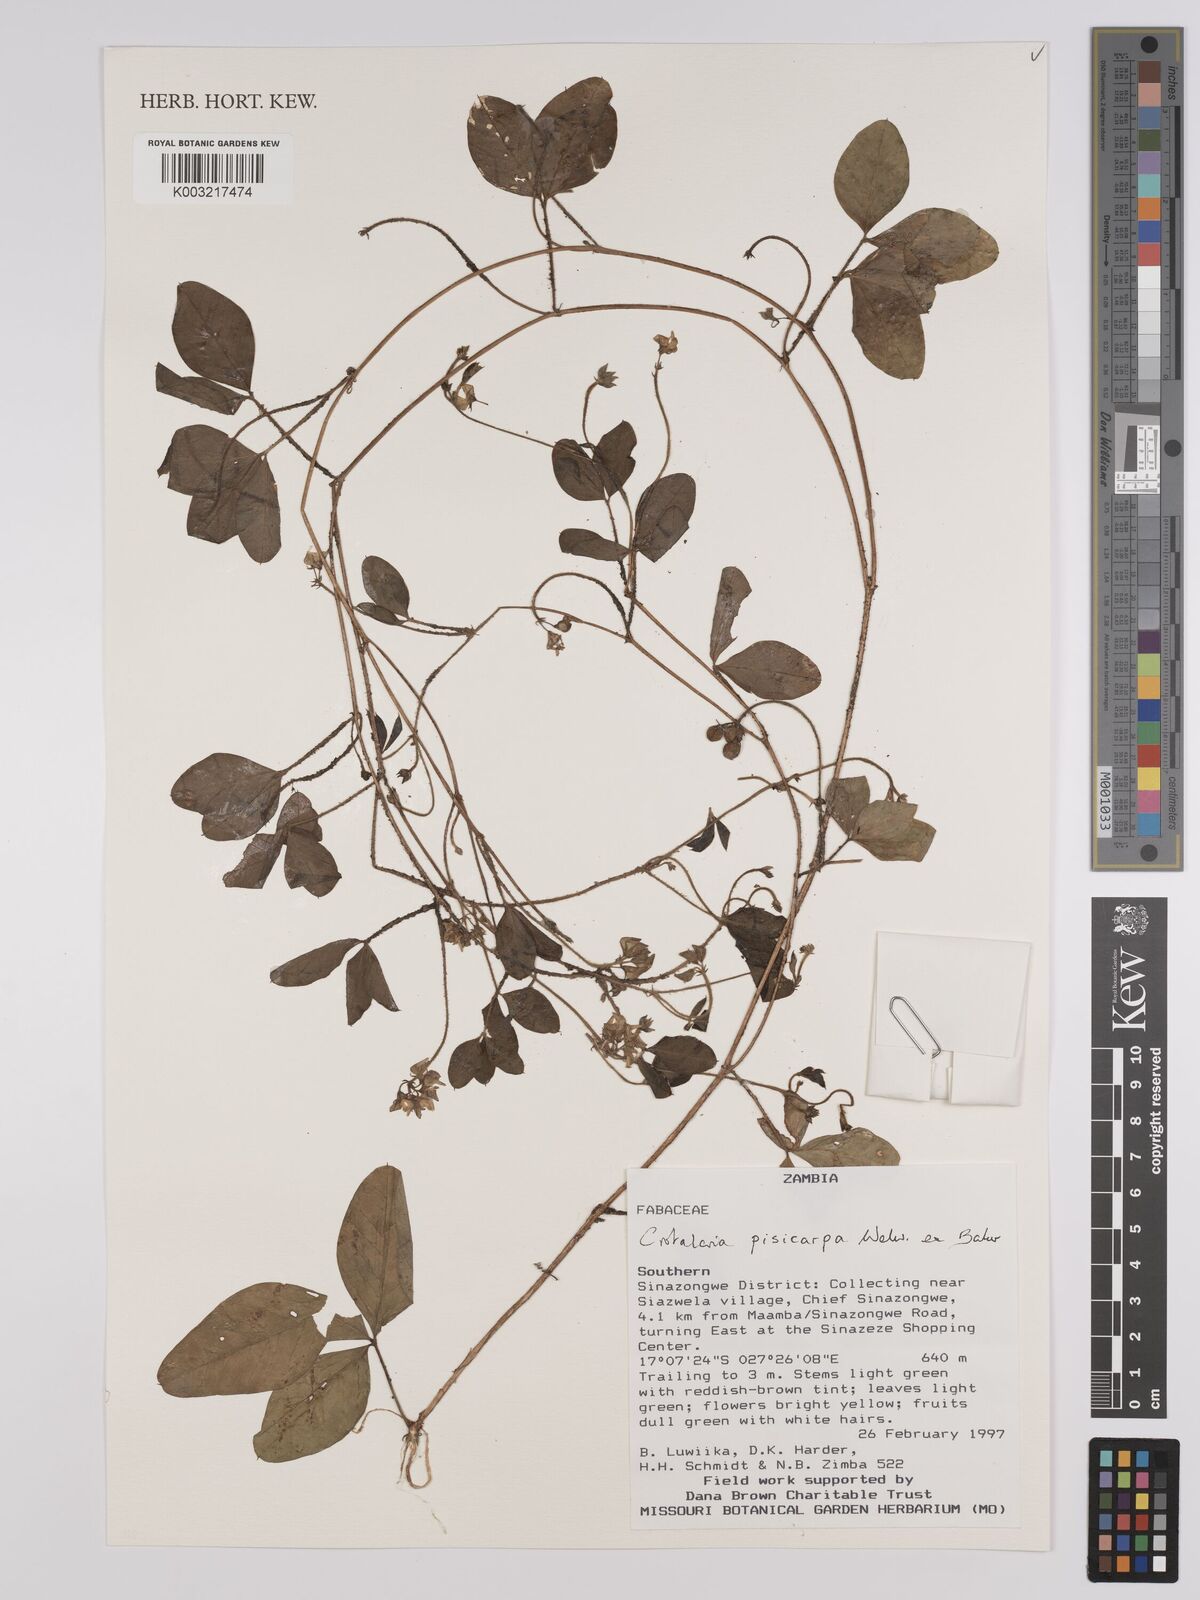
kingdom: Plantae
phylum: Tracheophyta
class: Magnoliopsida
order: Fabales
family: Fabaceae
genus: Crotalaria
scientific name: Crotalaria pisicarpa
